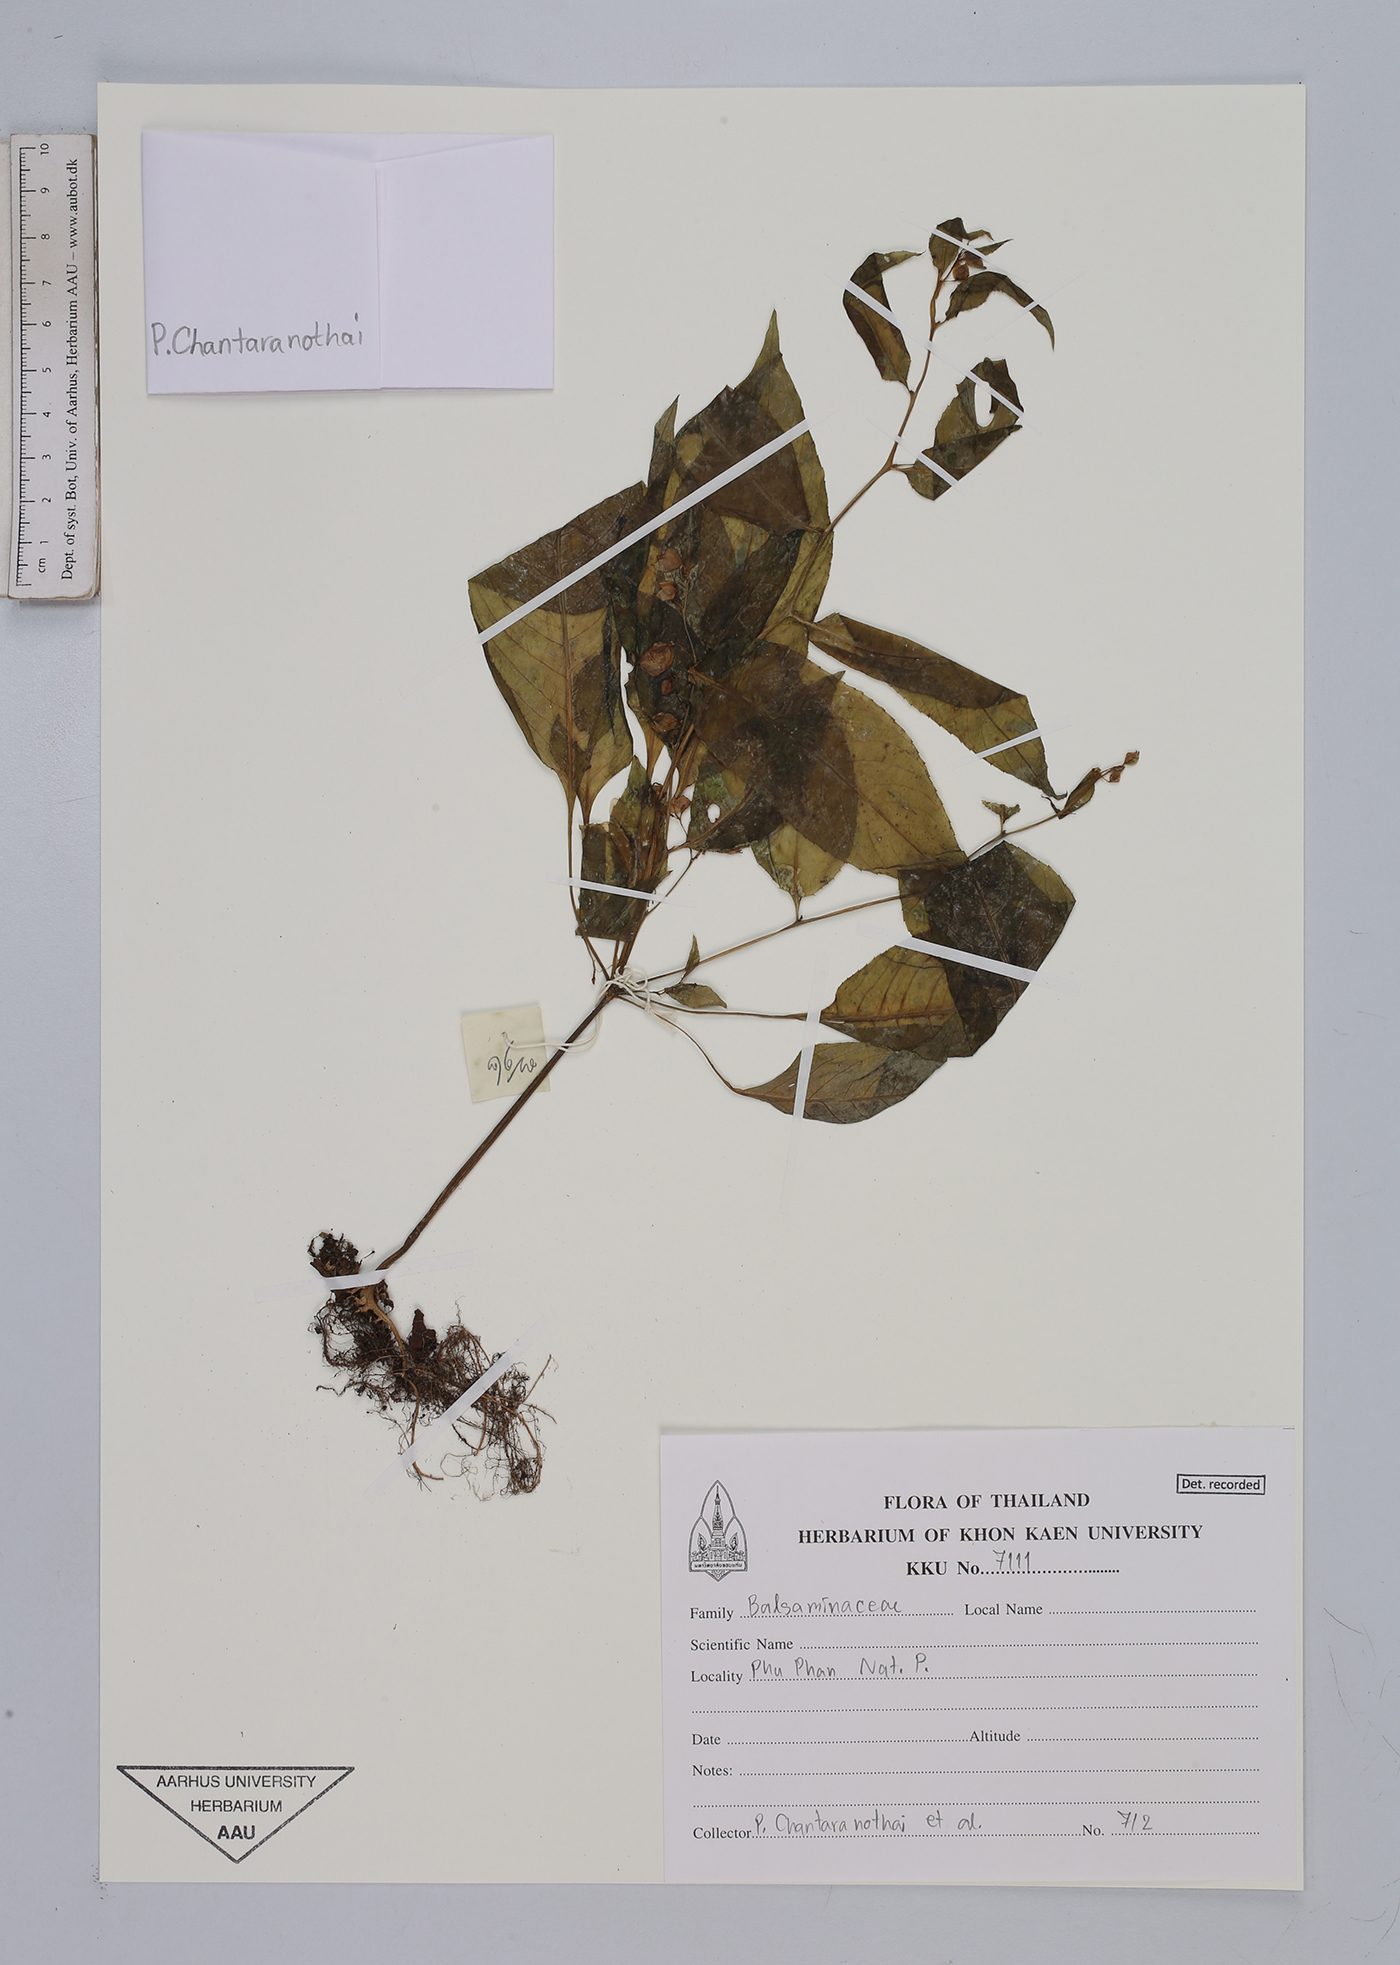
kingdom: Plantae
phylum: Tracheophyta
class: Magnoliopsida
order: Ericales
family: Balsaminaceae
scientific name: Balsaminaceae
